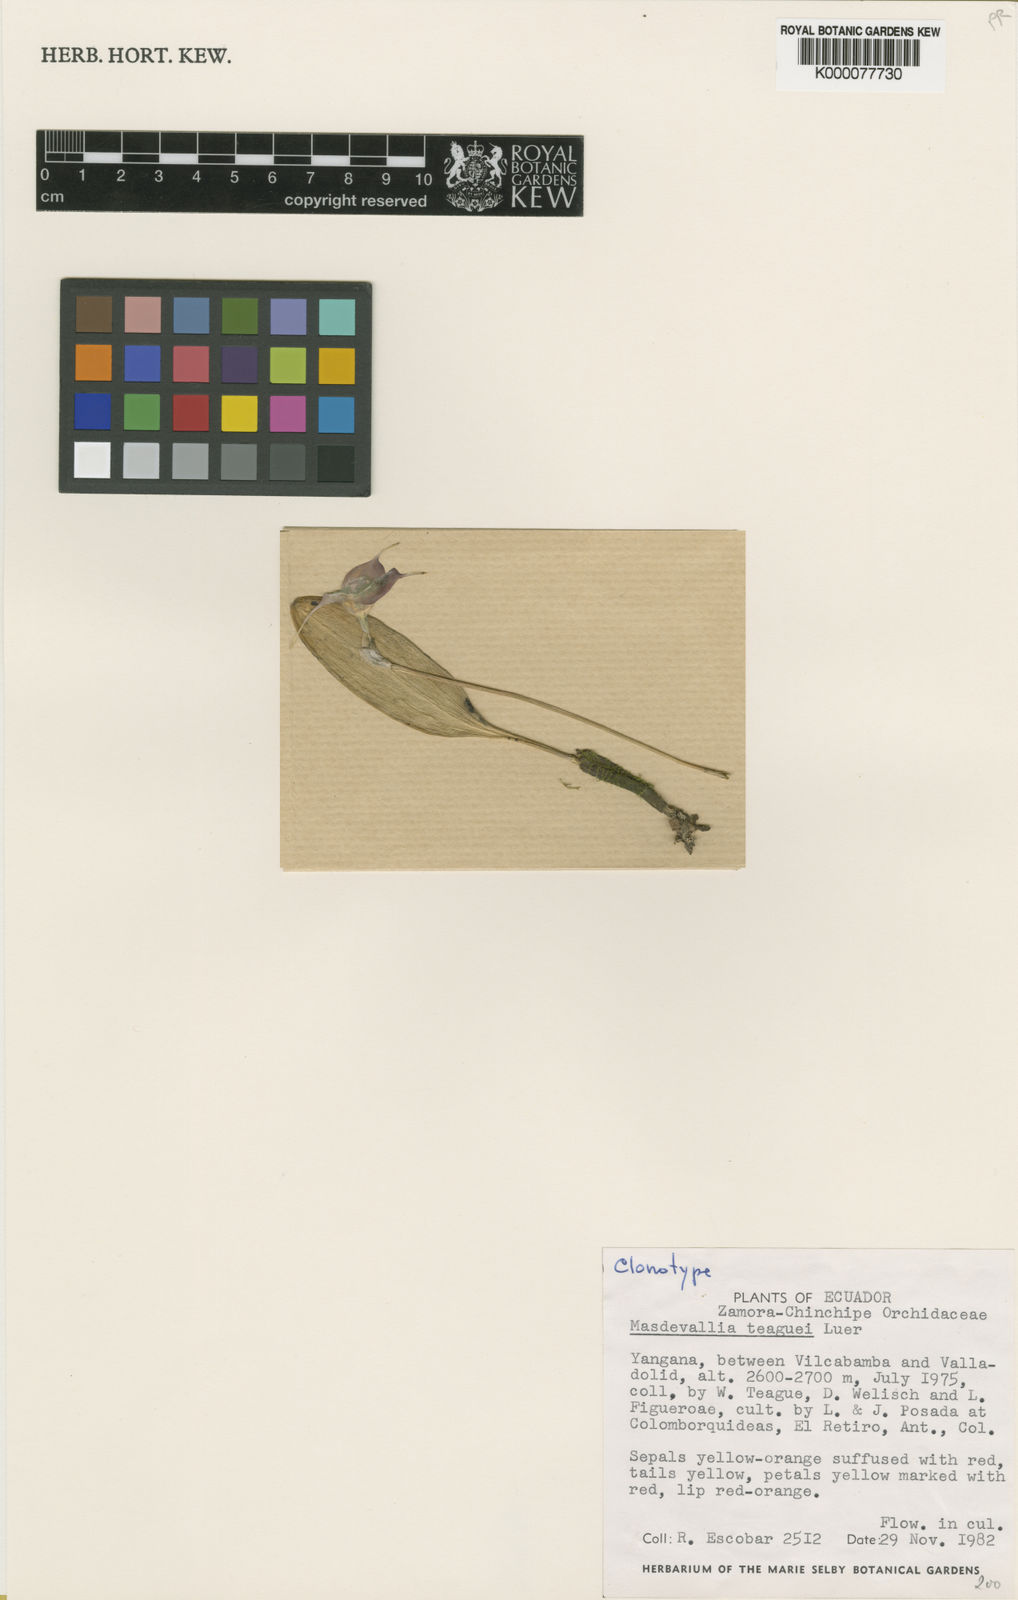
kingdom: Plantae
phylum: Tracheophyta
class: Liliopsida
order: Asparagales
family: Orchidaceae
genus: Masdevallia
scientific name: Masdevallia teaguei
